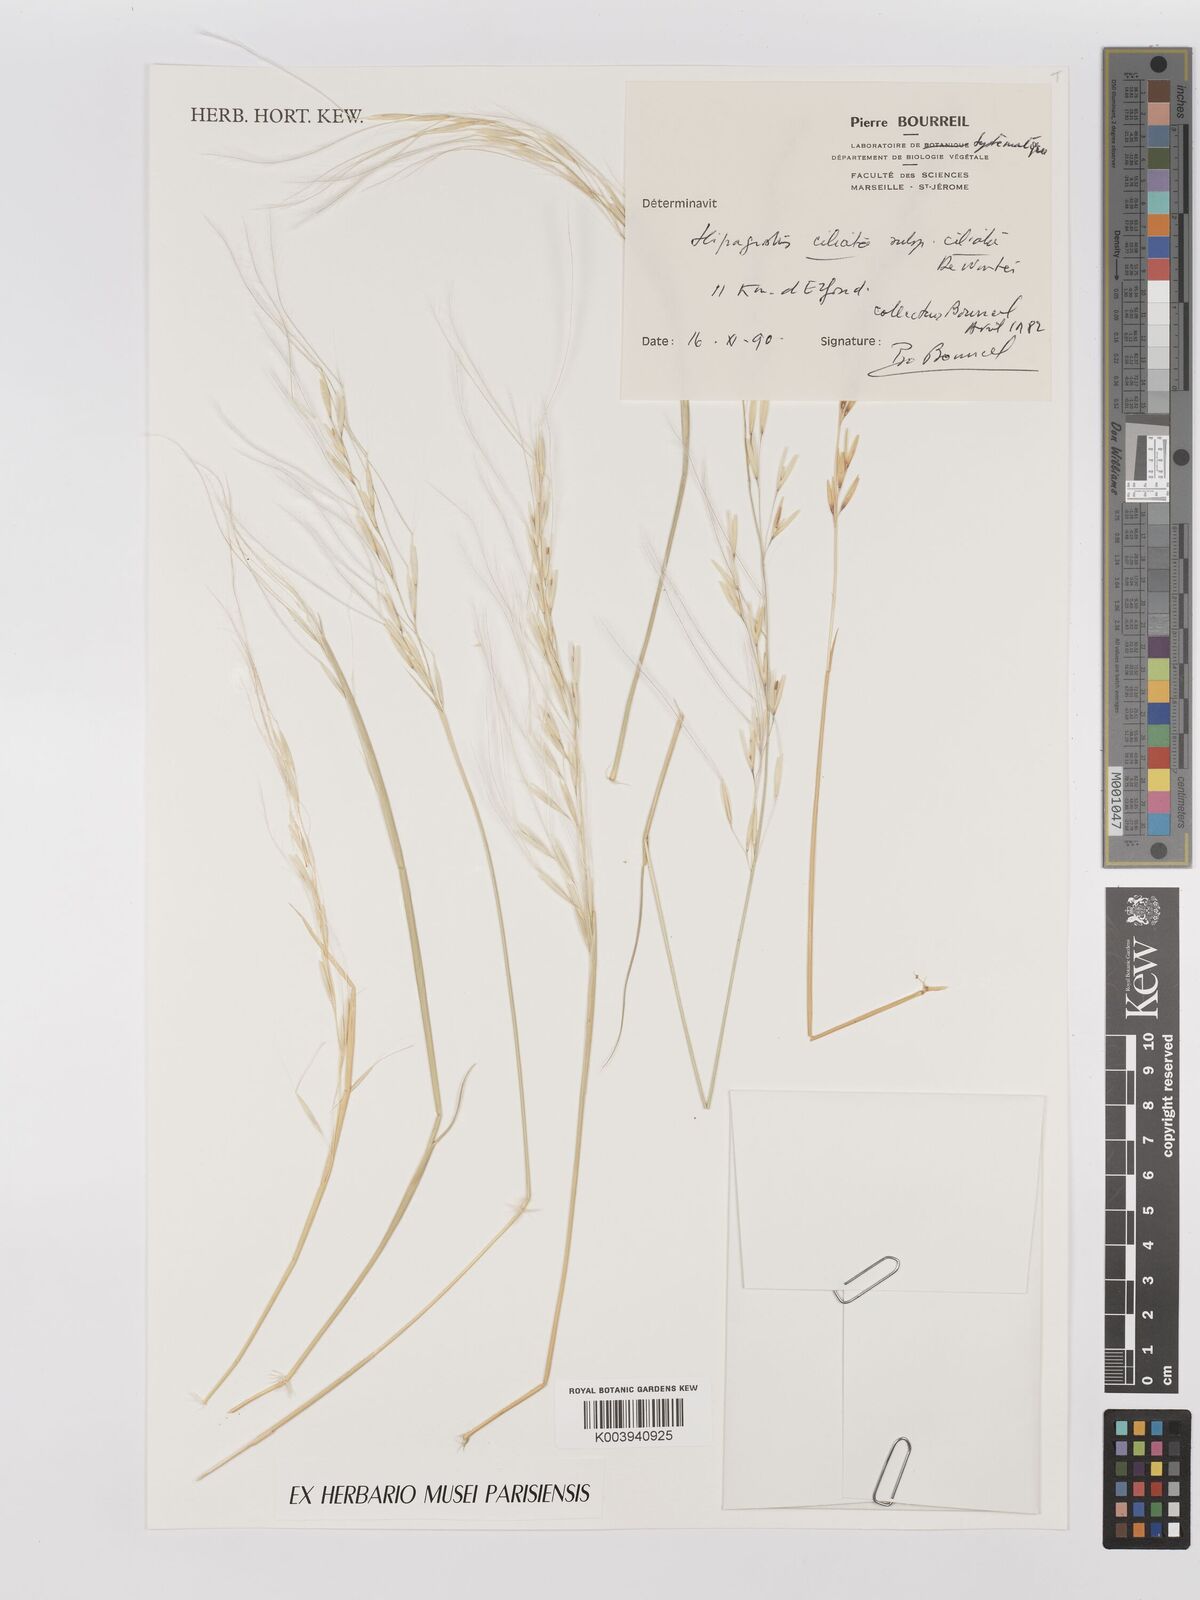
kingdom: Plantae
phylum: Tracheophyta
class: Liliopsida
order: Poales
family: Poaceae
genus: Stipagrostis
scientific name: Stipagrostis ciliata
